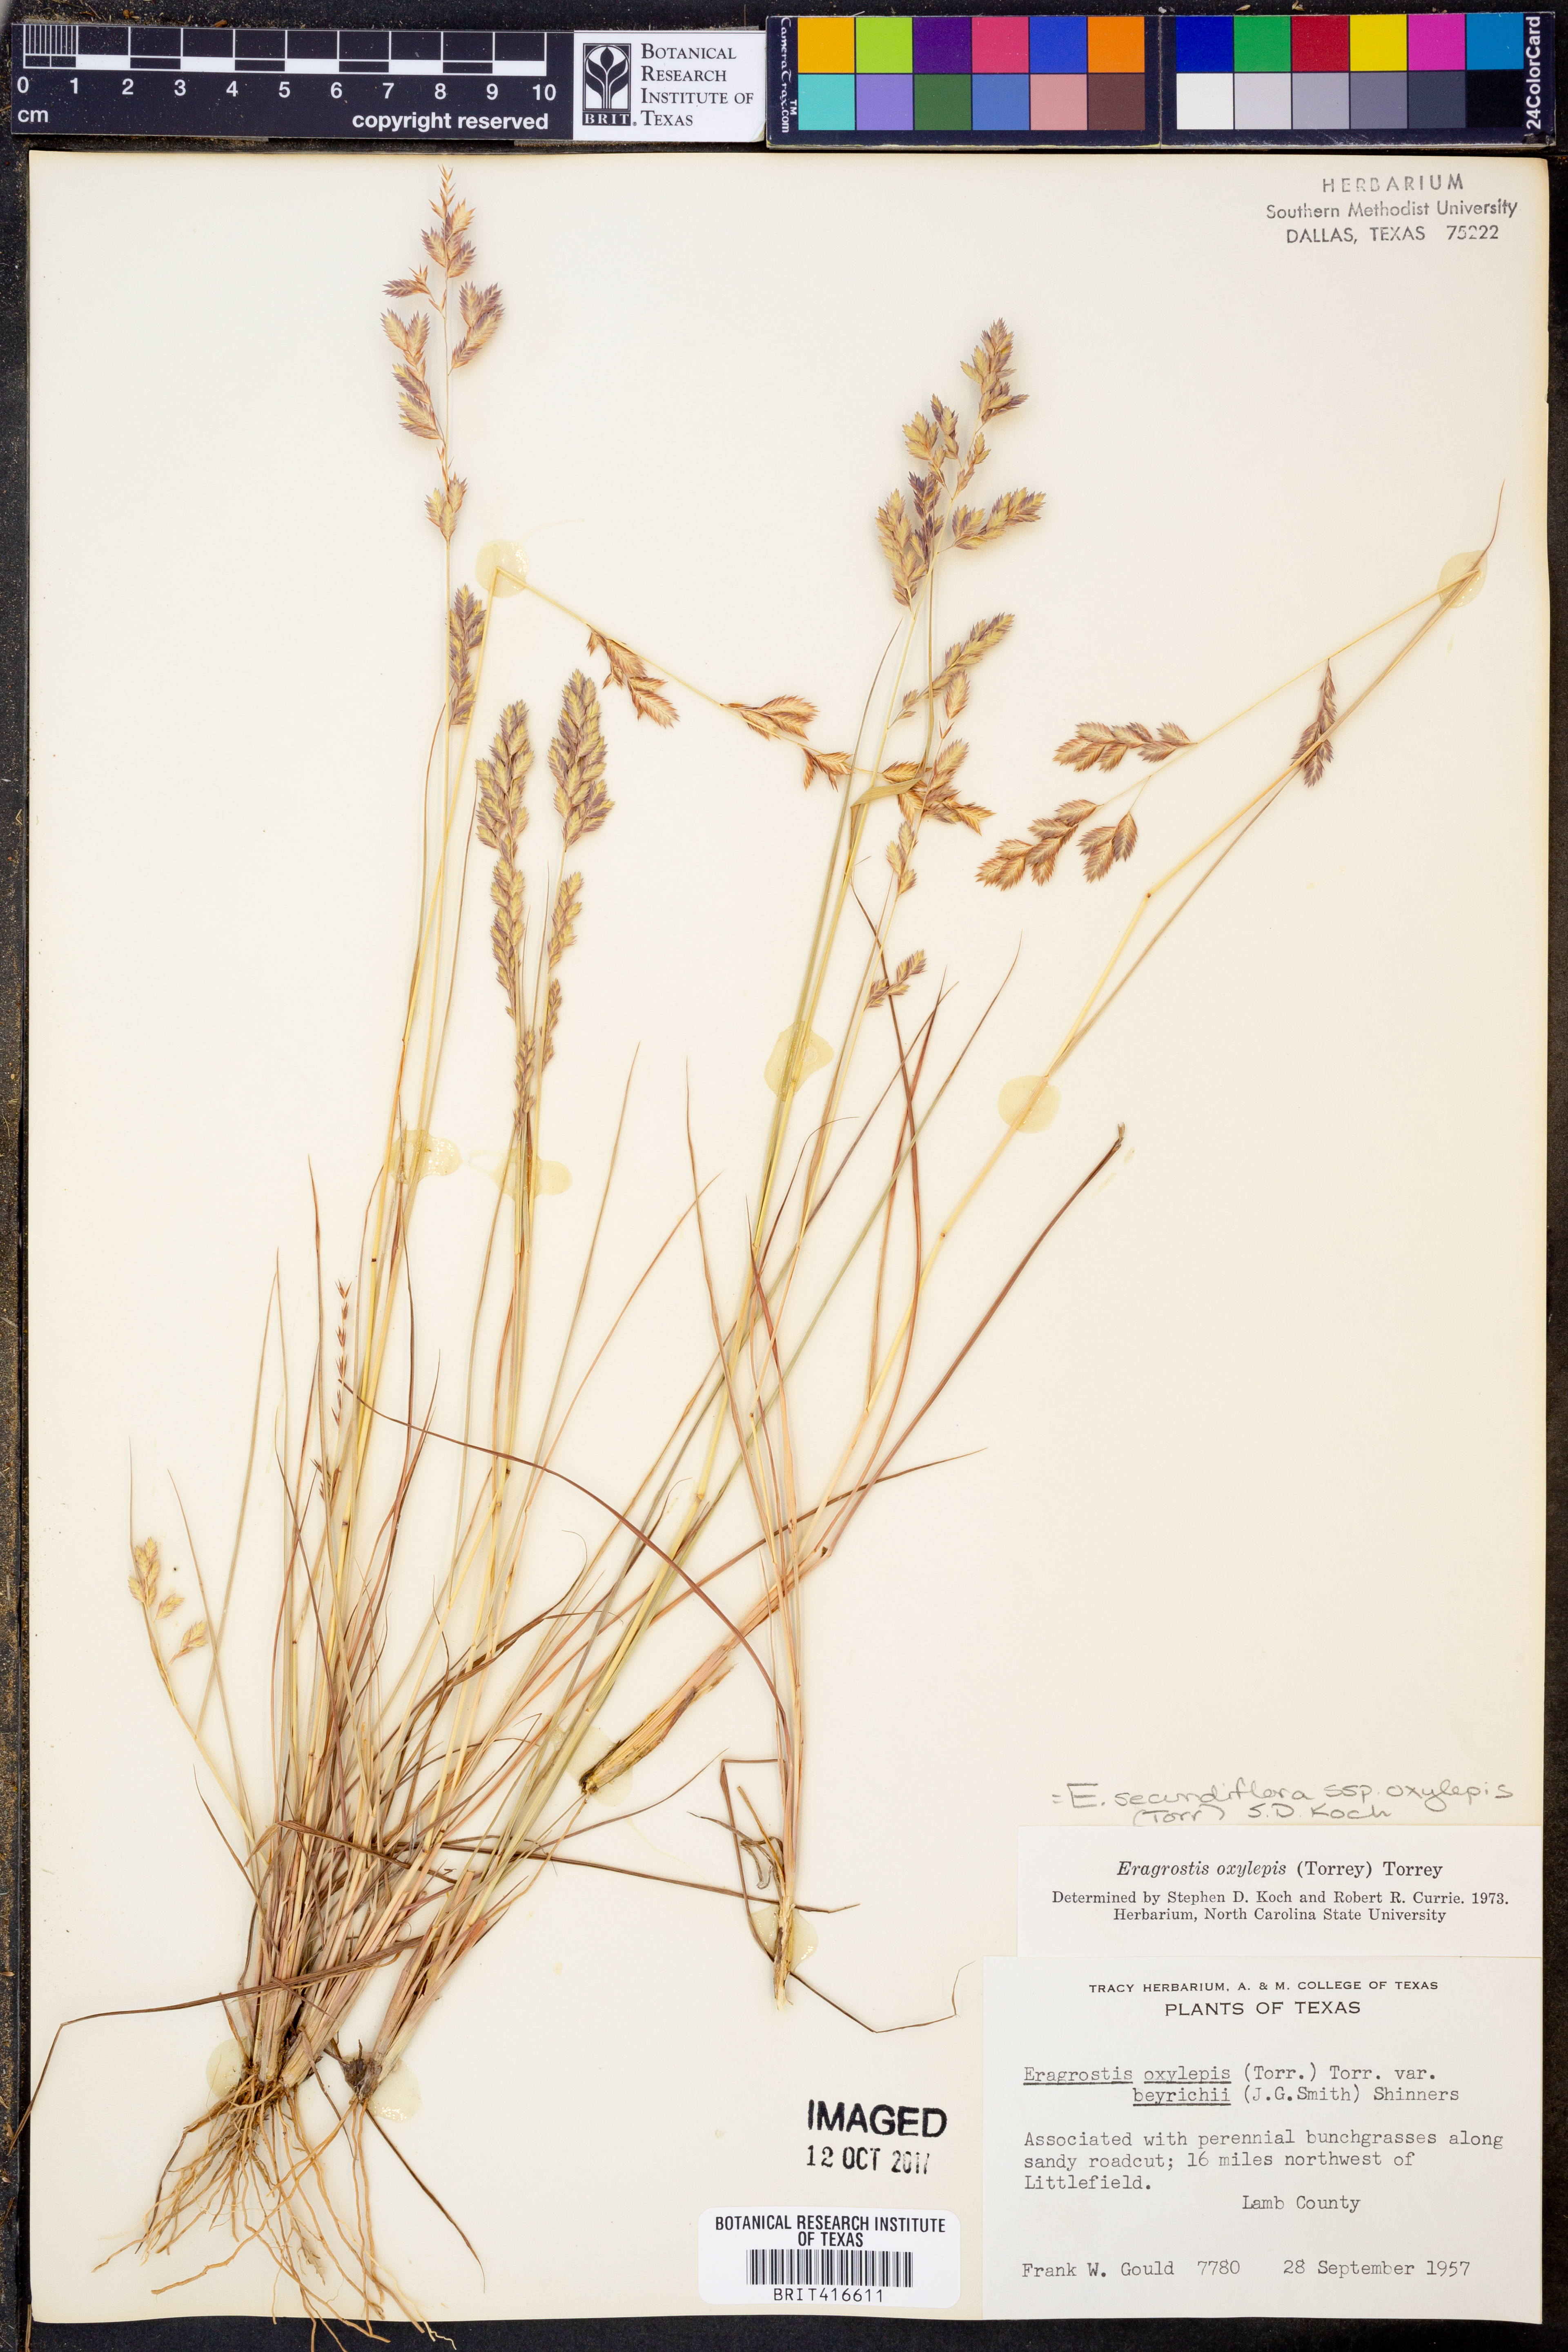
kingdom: Plantae
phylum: Tracheophyta
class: Liliopsida
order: Poales
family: Poaceae
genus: Eragrostis
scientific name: Eragrostis secundiflora
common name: Red love grass
